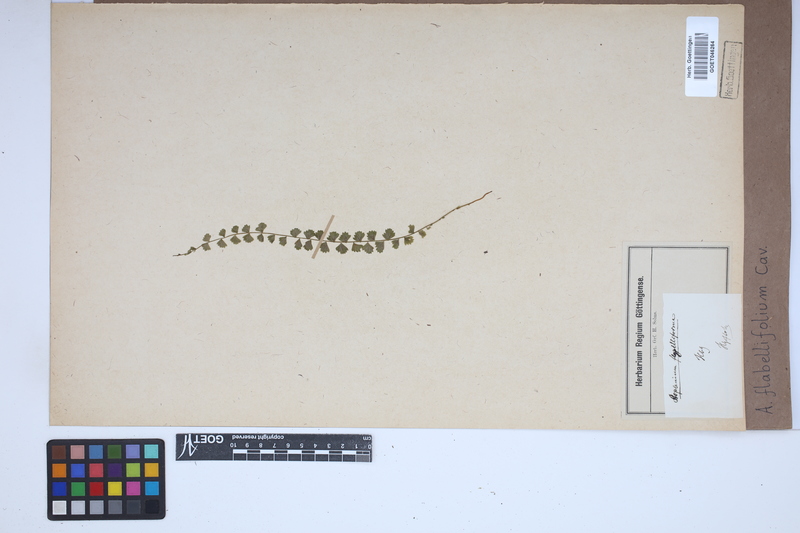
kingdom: Plantae
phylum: Tracheophyta
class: Polypodiopsida
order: Polypodiales
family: Aspleniaceae
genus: Asplenium
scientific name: Asplenium flabellifolium
